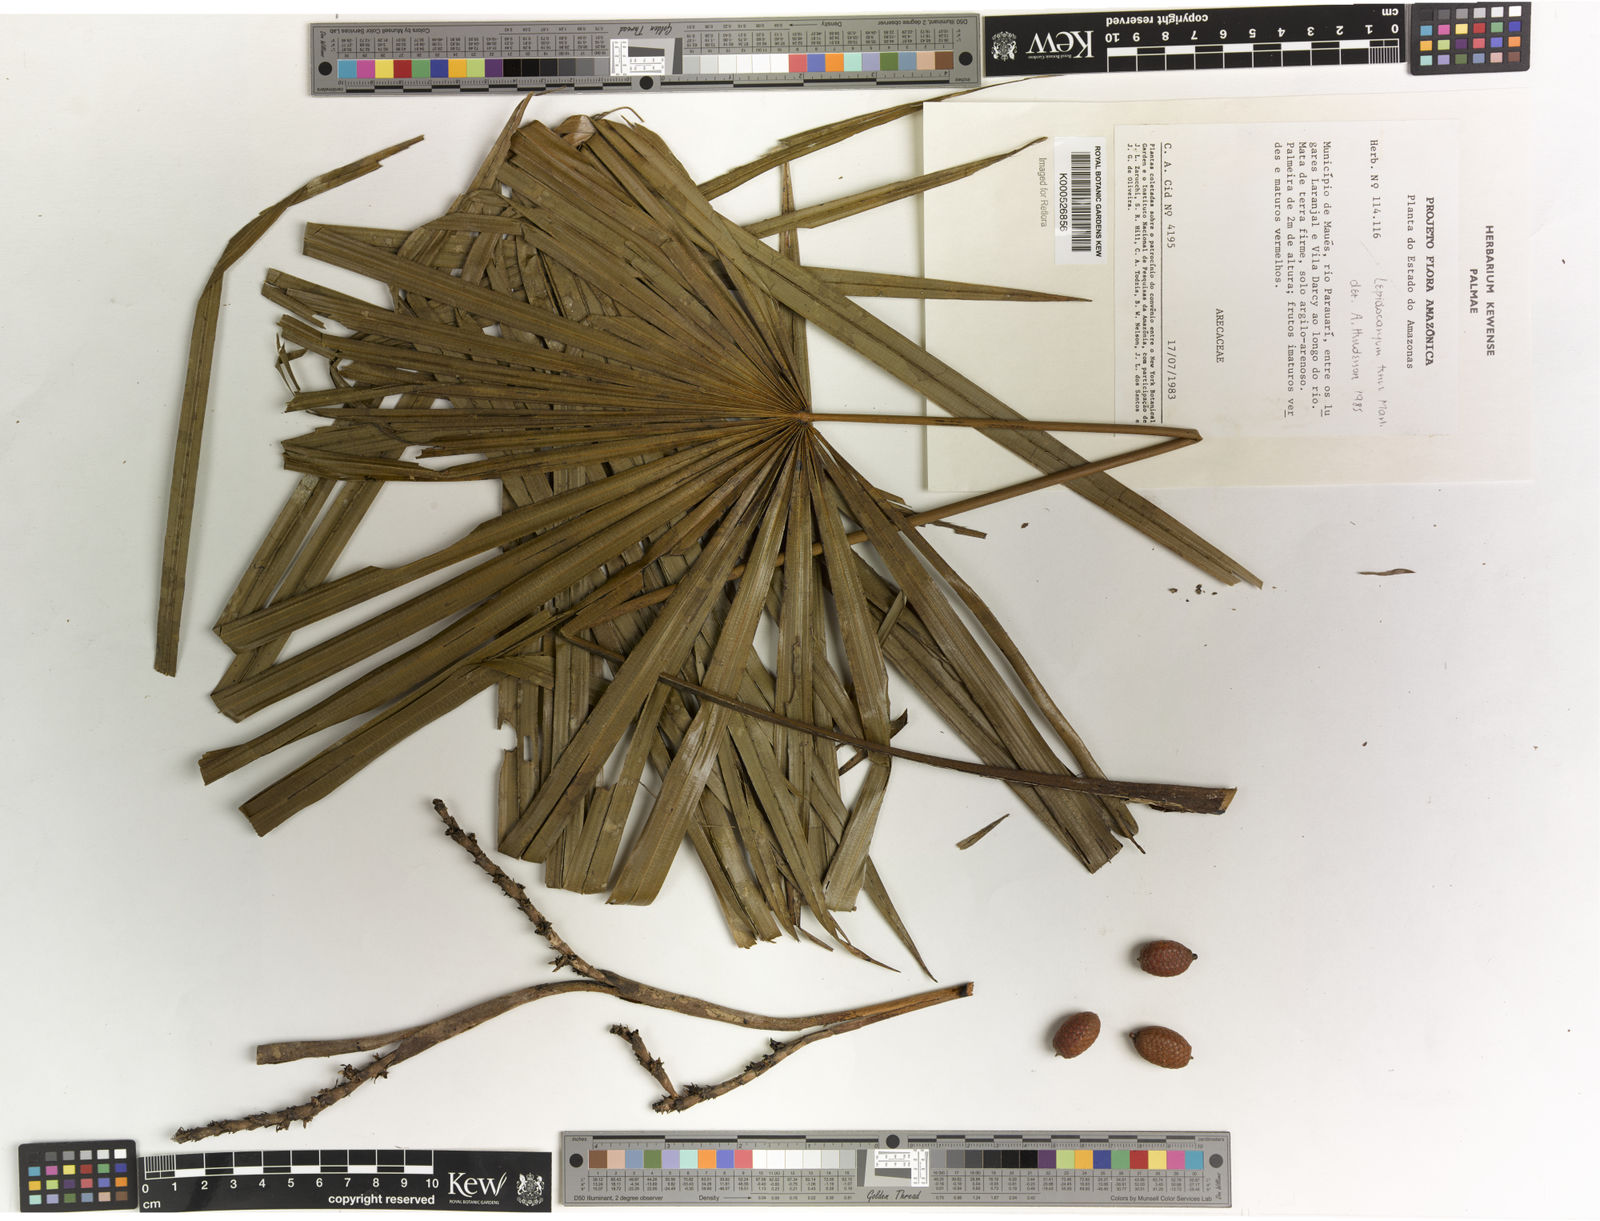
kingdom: Plantae
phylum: Tracheophyta
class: Liliopsida
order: Arecales
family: Arecaceae
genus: Lepidocaryum
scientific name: Lepidocaryum tenue
